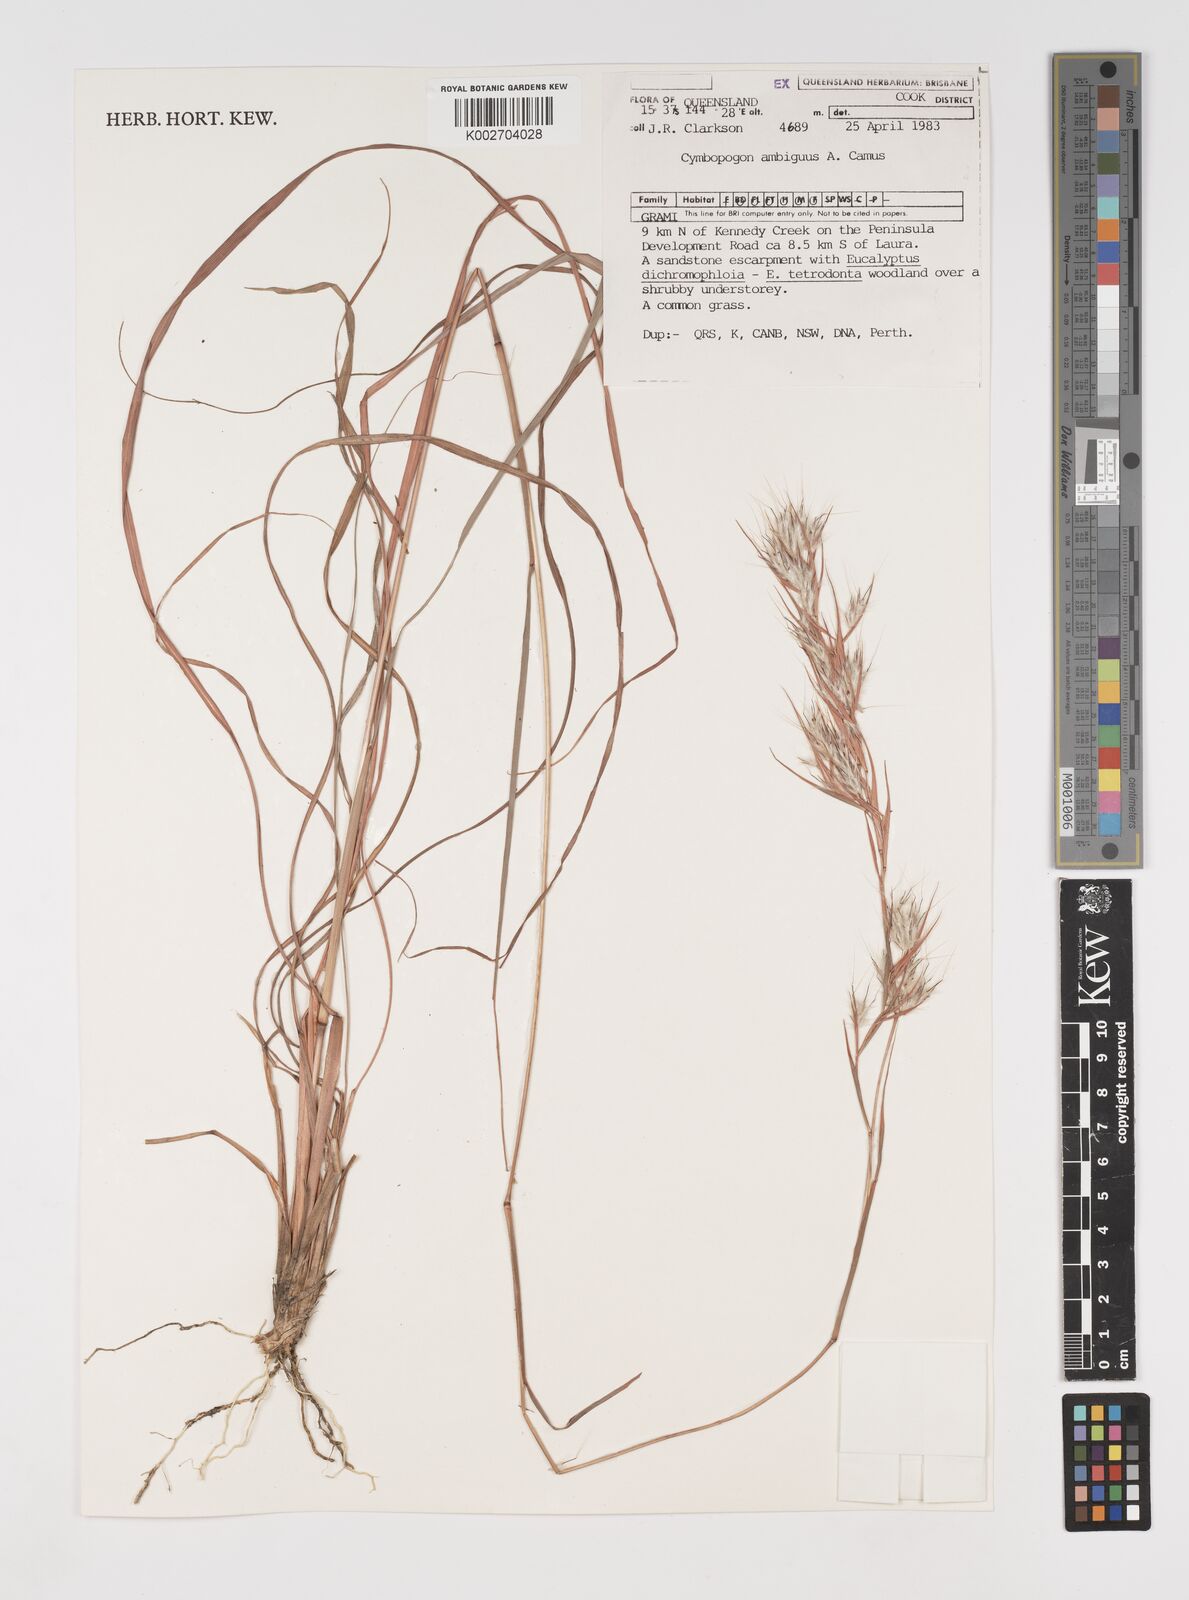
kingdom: Plantae
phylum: Tracheophyta
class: Liliopsida
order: Poales
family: Poaceae
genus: Cymbopogon
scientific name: Cymbopogon ambiguus
